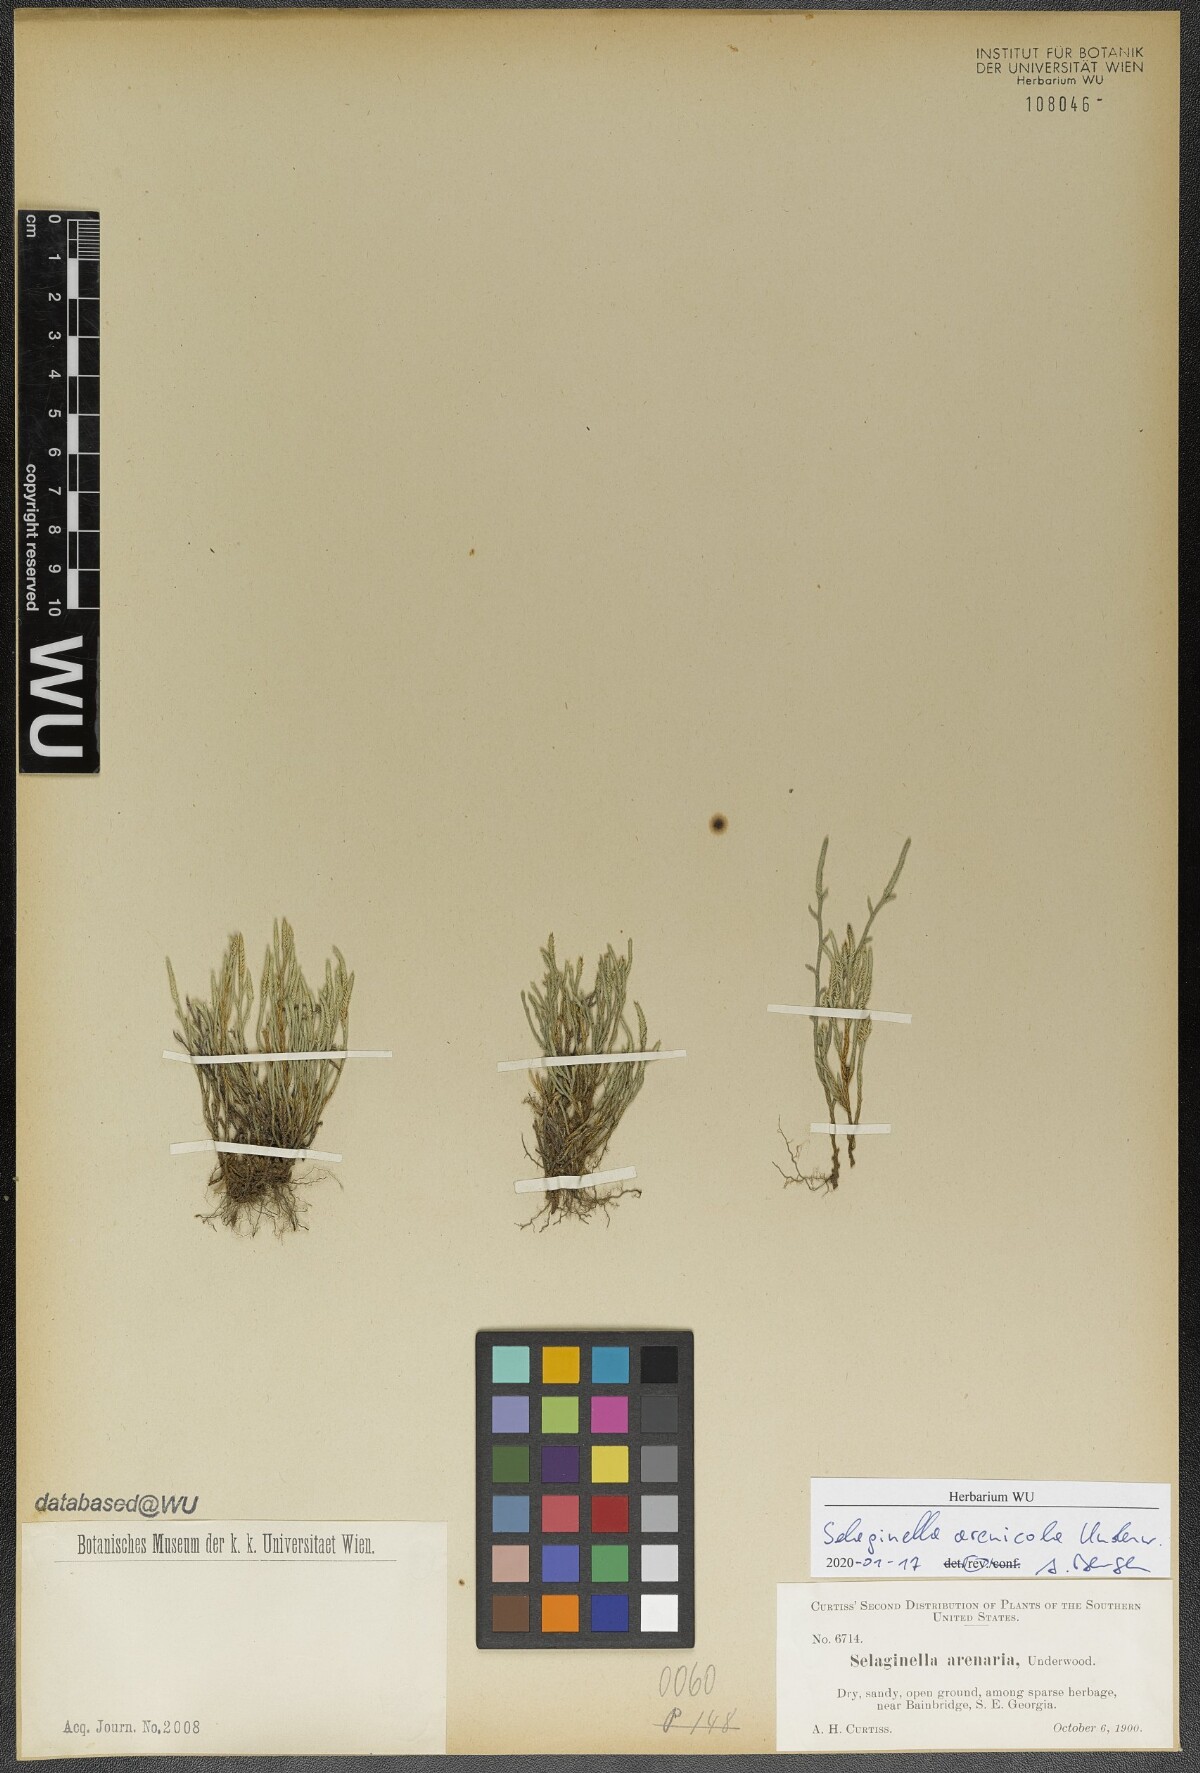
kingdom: Plantae
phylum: Tracheophyta
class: Lycopodiopsida
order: Selaginellales
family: Selaginellaceae
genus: Selaginella
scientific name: Selaginella arenicola
